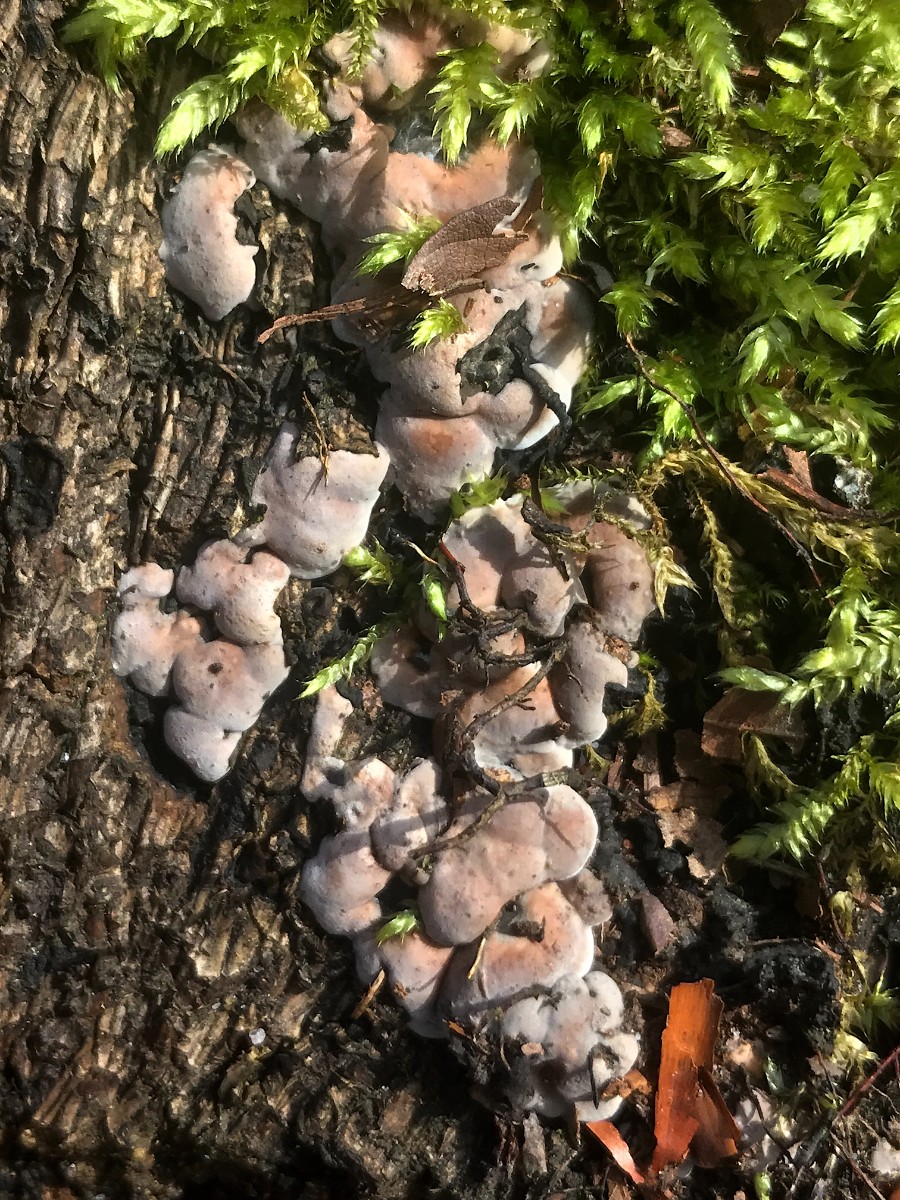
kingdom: Fungi
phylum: Ascomycota
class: Sordariomycetes
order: Xylariales
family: Xylariaceae
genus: Kretzschmaria
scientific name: Kretzschmaria deusta
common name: stor kulsvamp
